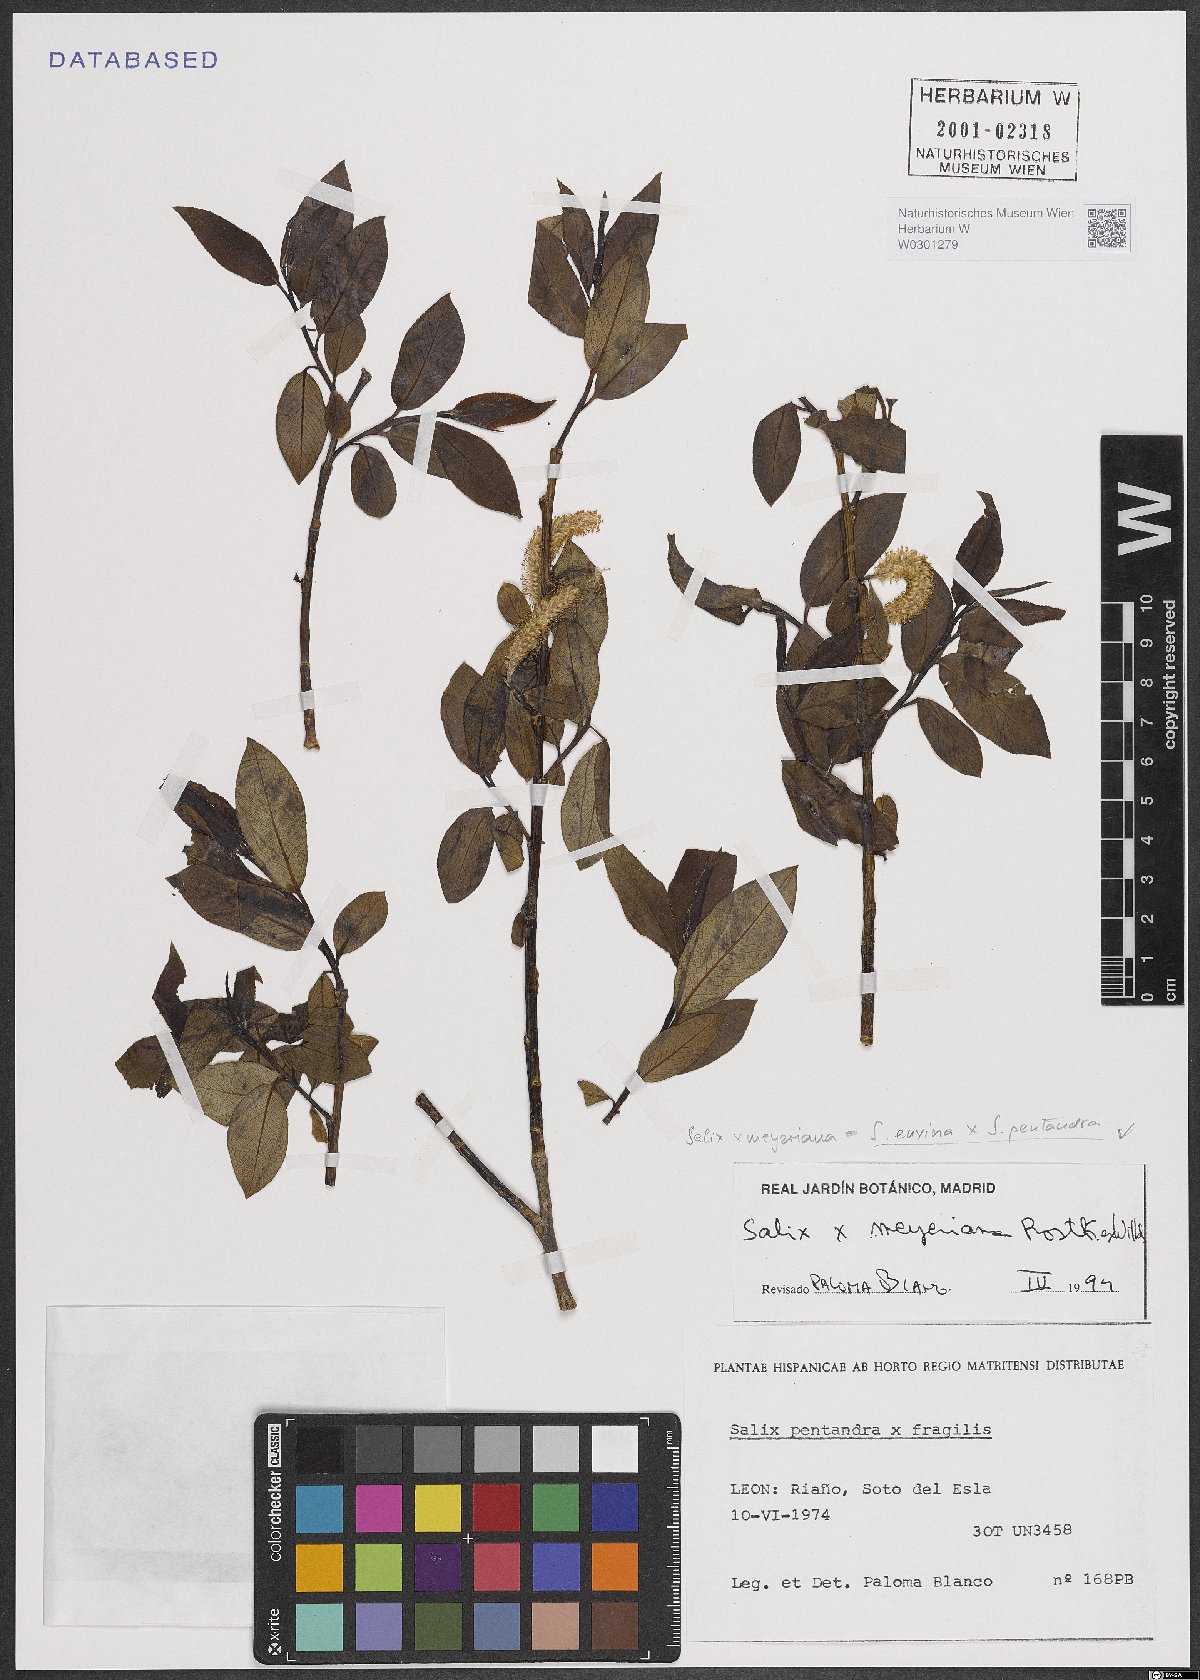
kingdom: Plantae
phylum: Tracheophyta
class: Magnoliopsida
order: Malpighiales
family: Salicaceae
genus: Salix
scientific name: Salix
